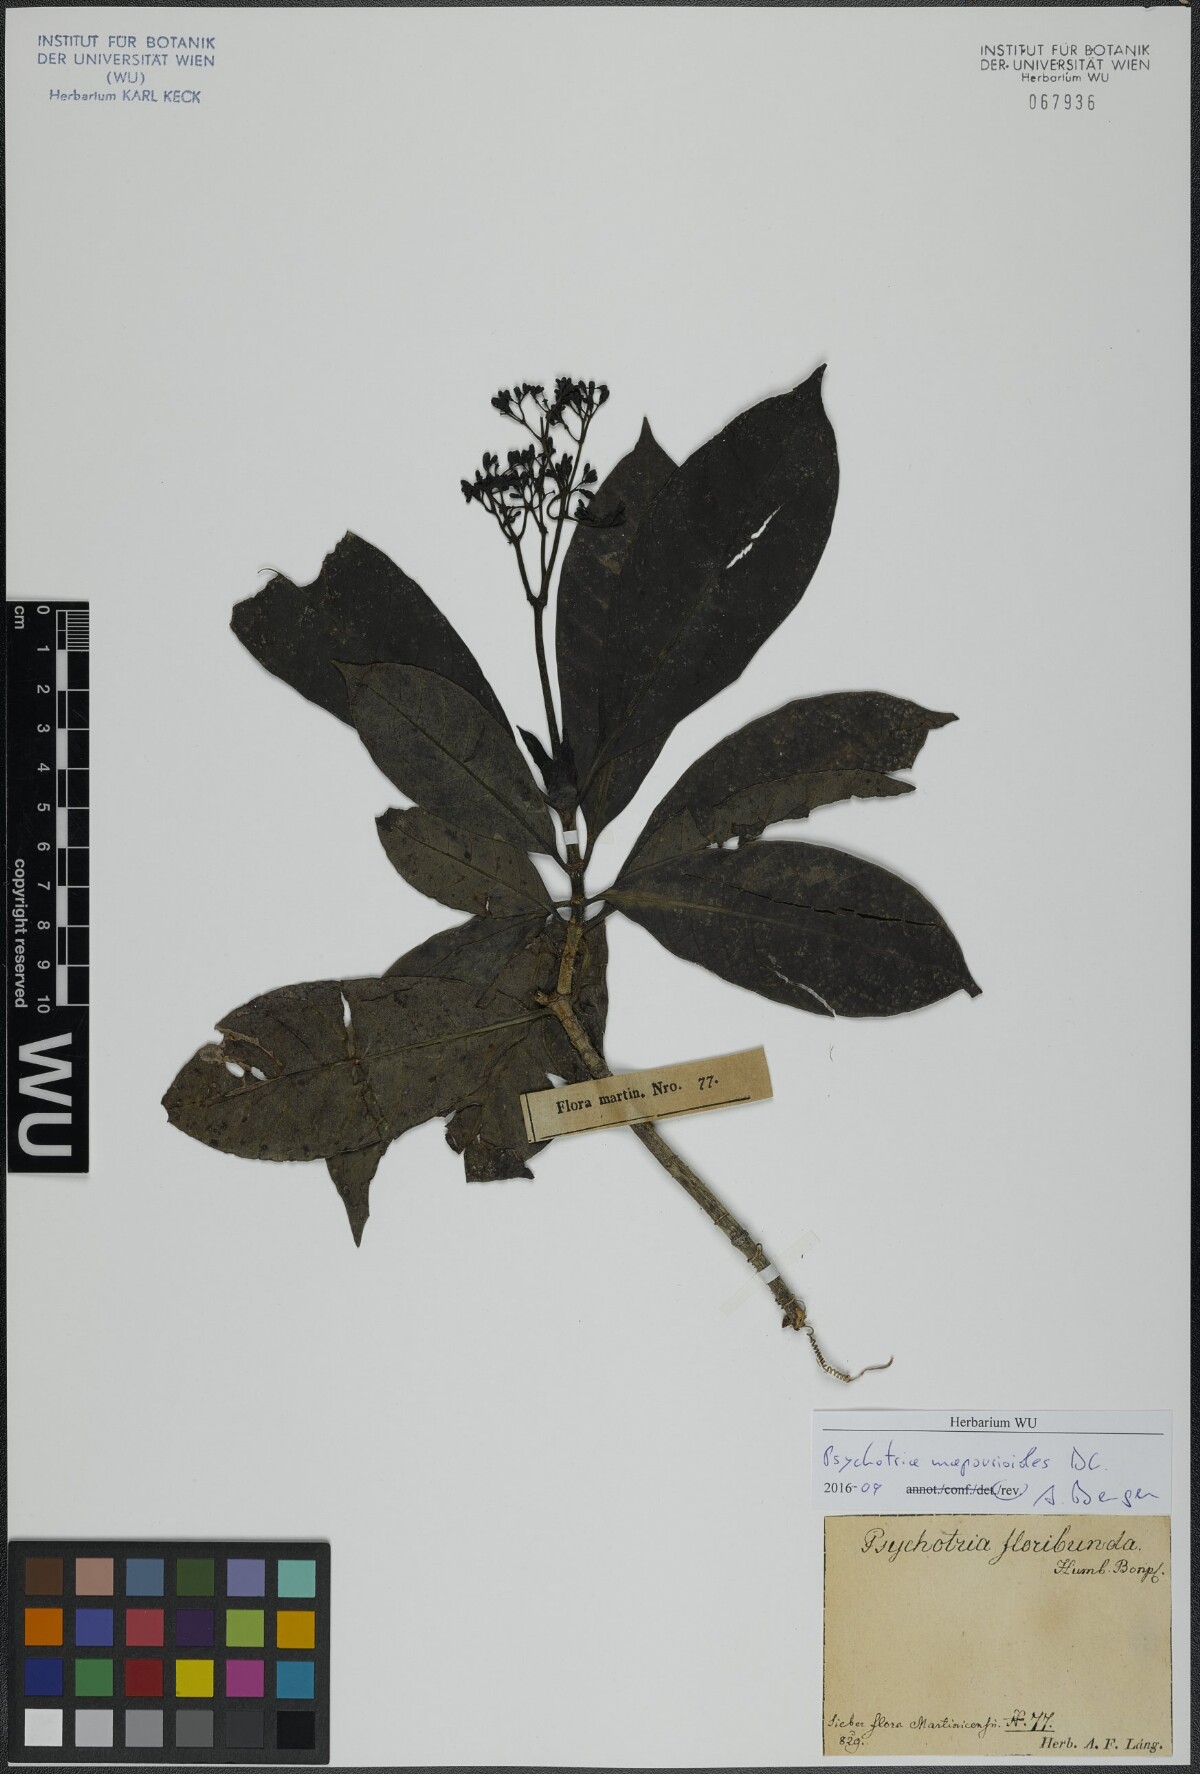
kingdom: Plantae
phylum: Tracheophyta
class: Magnoliopsida
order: Gentianales
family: Rubiaceae
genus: Psychotria
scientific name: Psychotria pedunculosa
